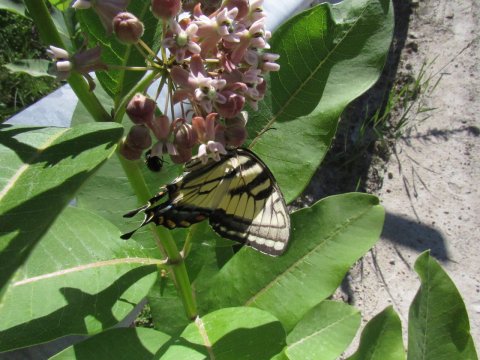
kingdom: Animalia
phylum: Arthropoda
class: Insecta
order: Lepidoptera
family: Papilionidae
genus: Pterourus
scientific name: Pterourus
